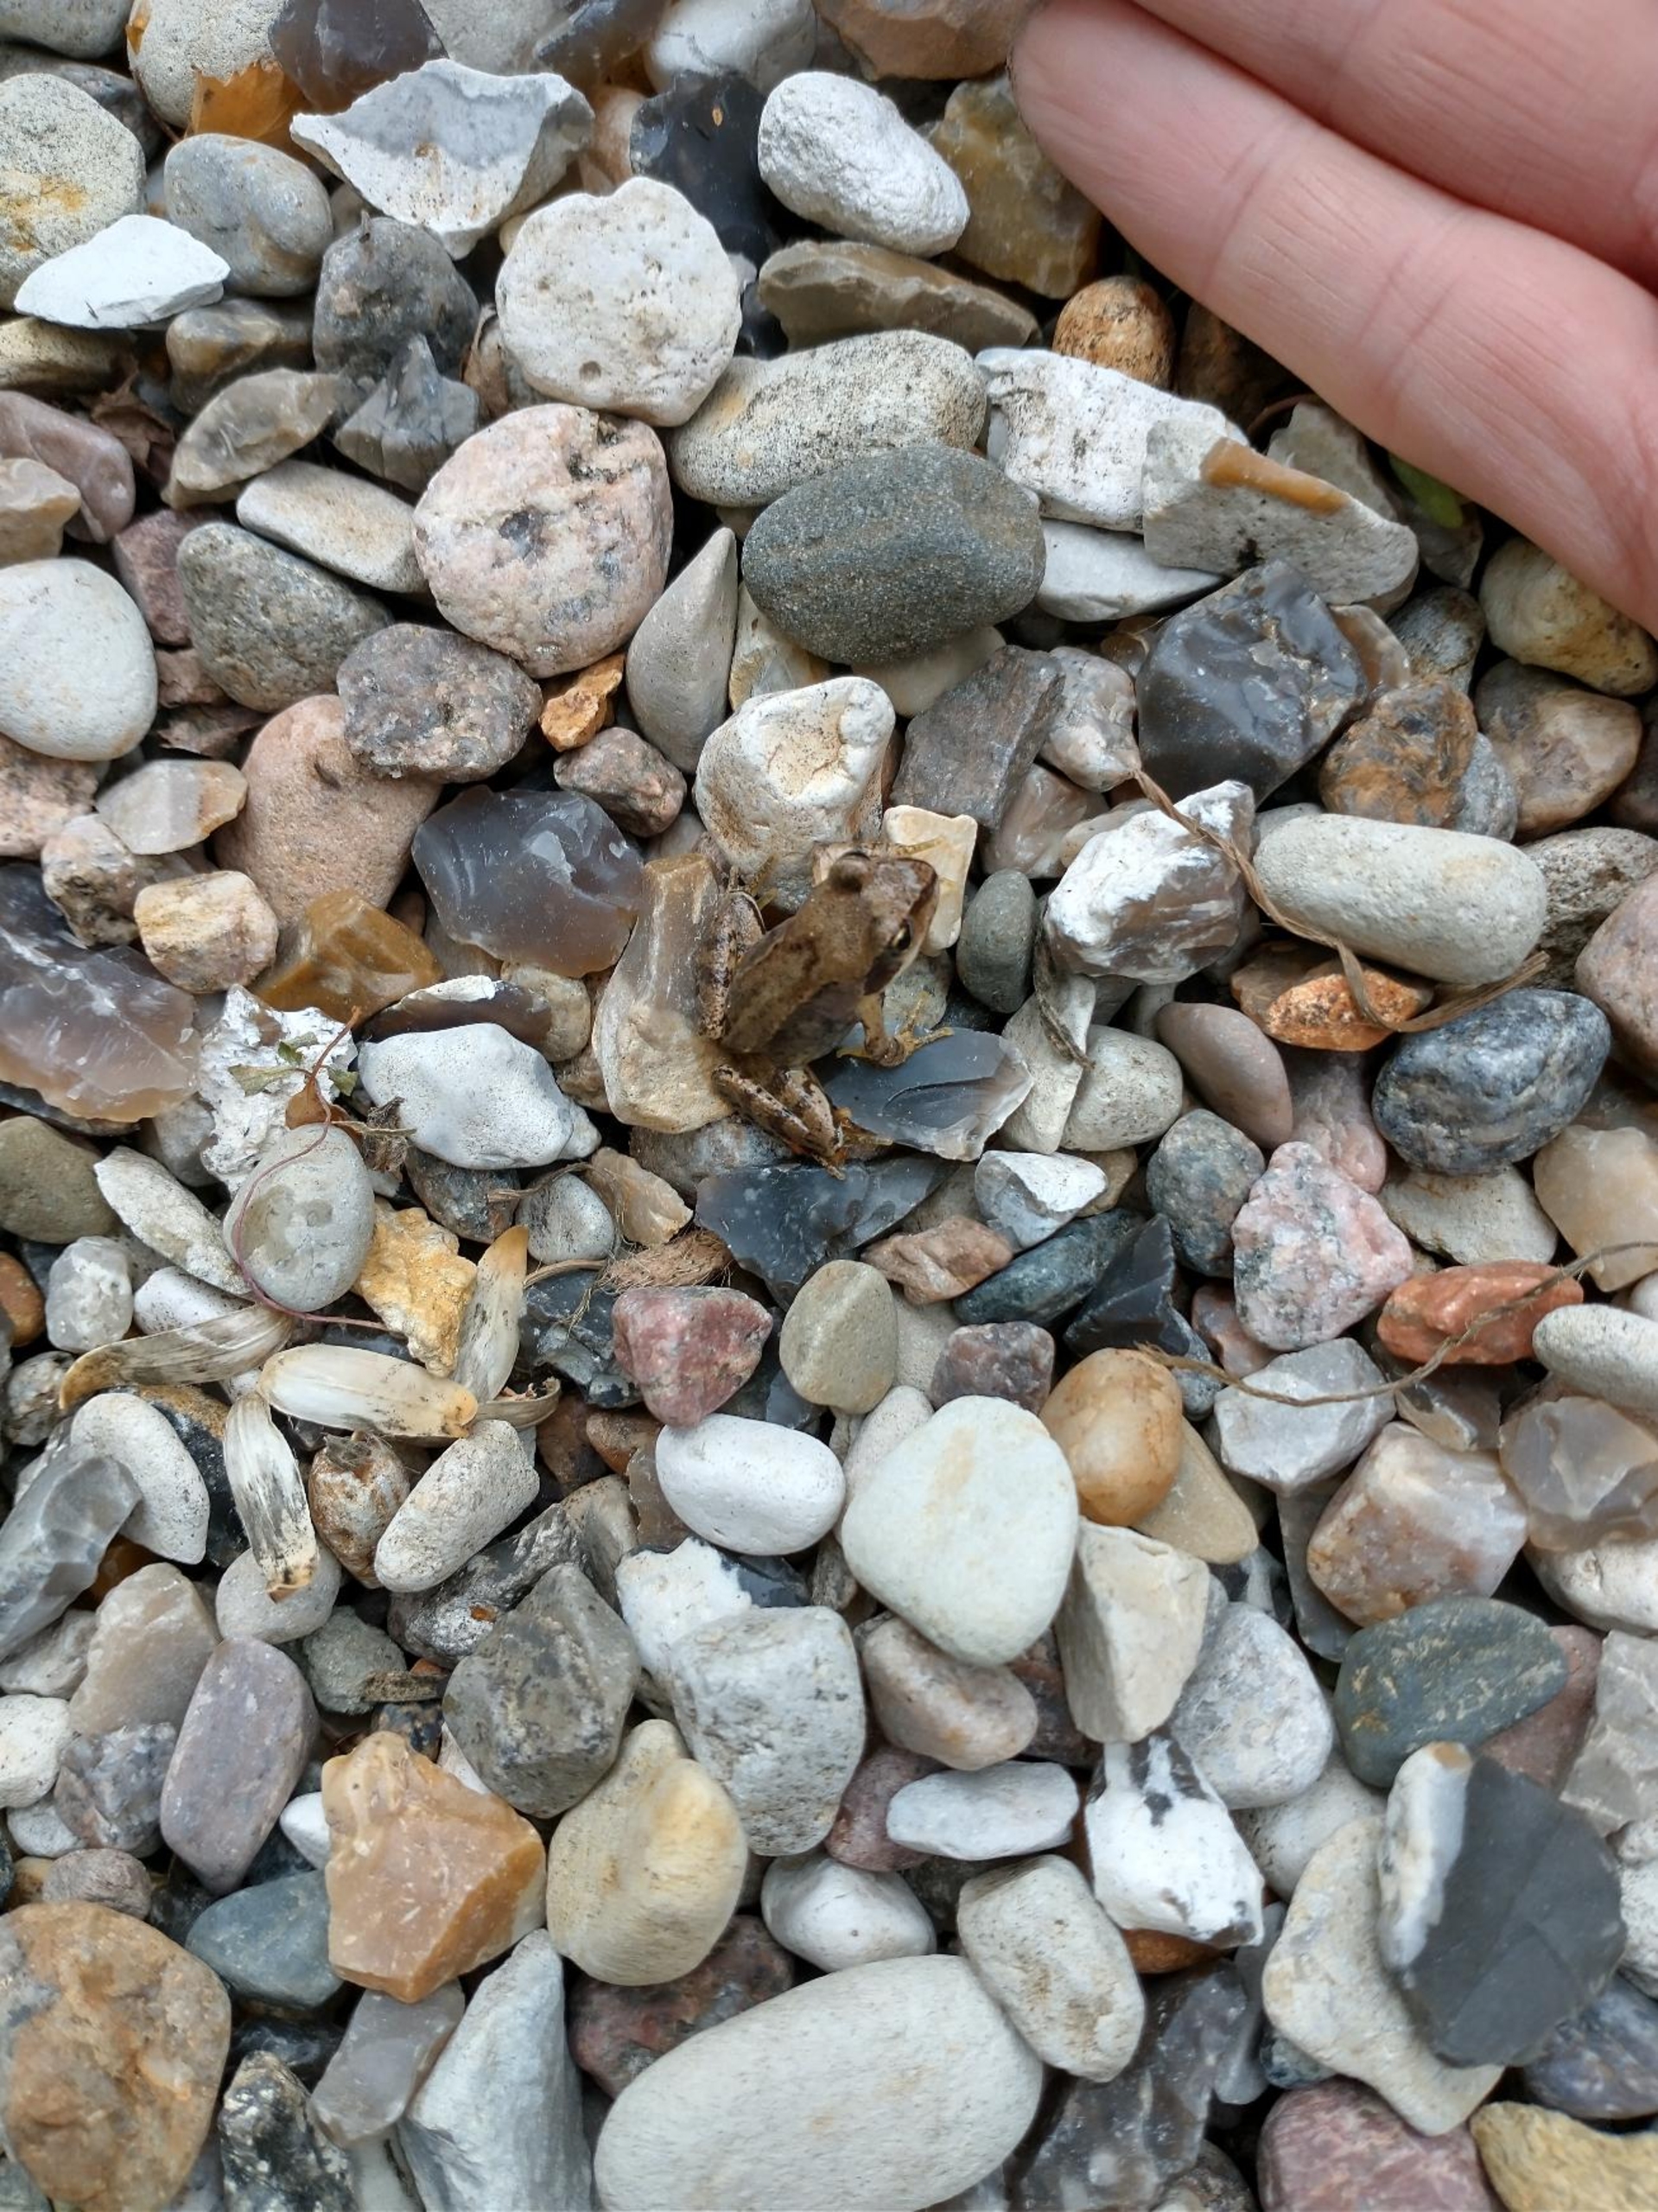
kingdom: Animalia
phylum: Chordata
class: Amphibia
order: Anura
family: Ranidae
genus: Rana
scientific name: Rana temporaria
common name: Butsnudet frø
